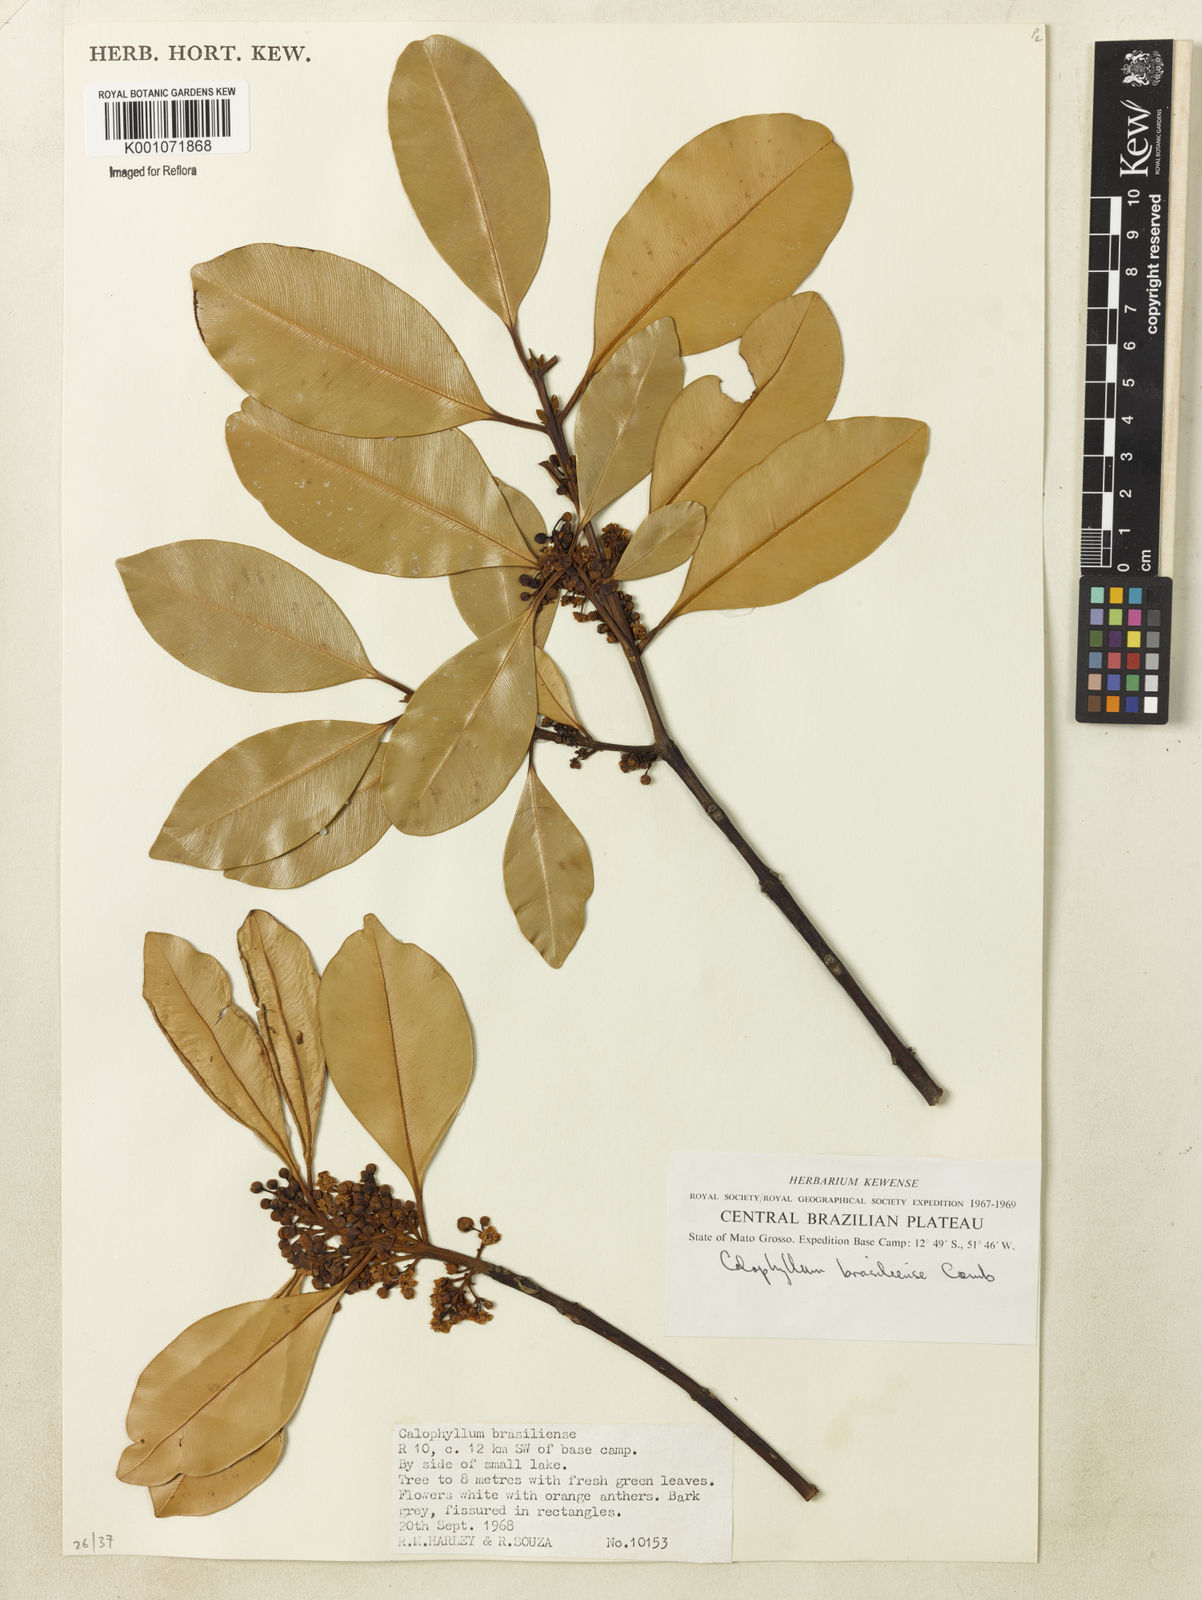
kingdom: Plantae
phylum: Tracheophyta
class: Magnoliopsida
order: Malpighiales
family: Calophyllaceae
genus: Calophyllum
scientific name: Calophyllum brasiliense
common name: Santa maria
